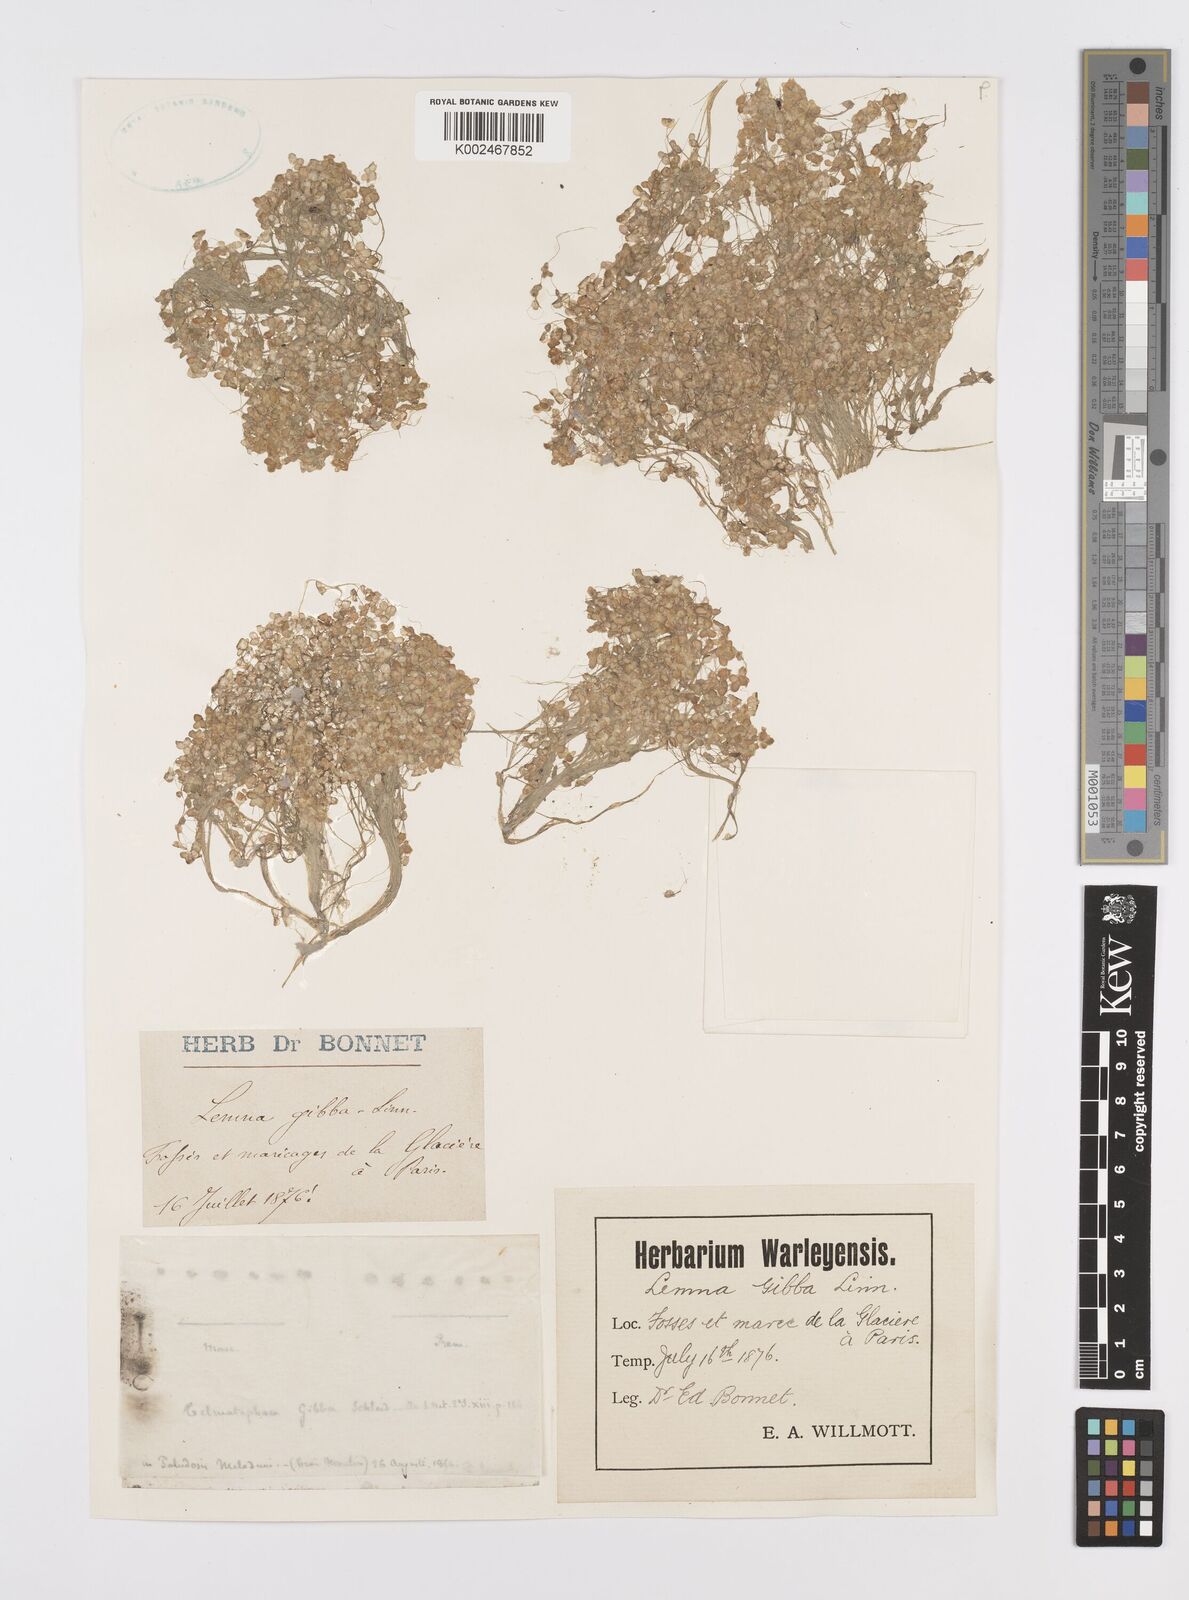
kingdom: Plantae
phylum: Tracheophyta
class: Liliopsida
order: Alismatales
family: Araceae
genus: Lemna
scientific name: Lemna gibba
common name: Fat duckweed
